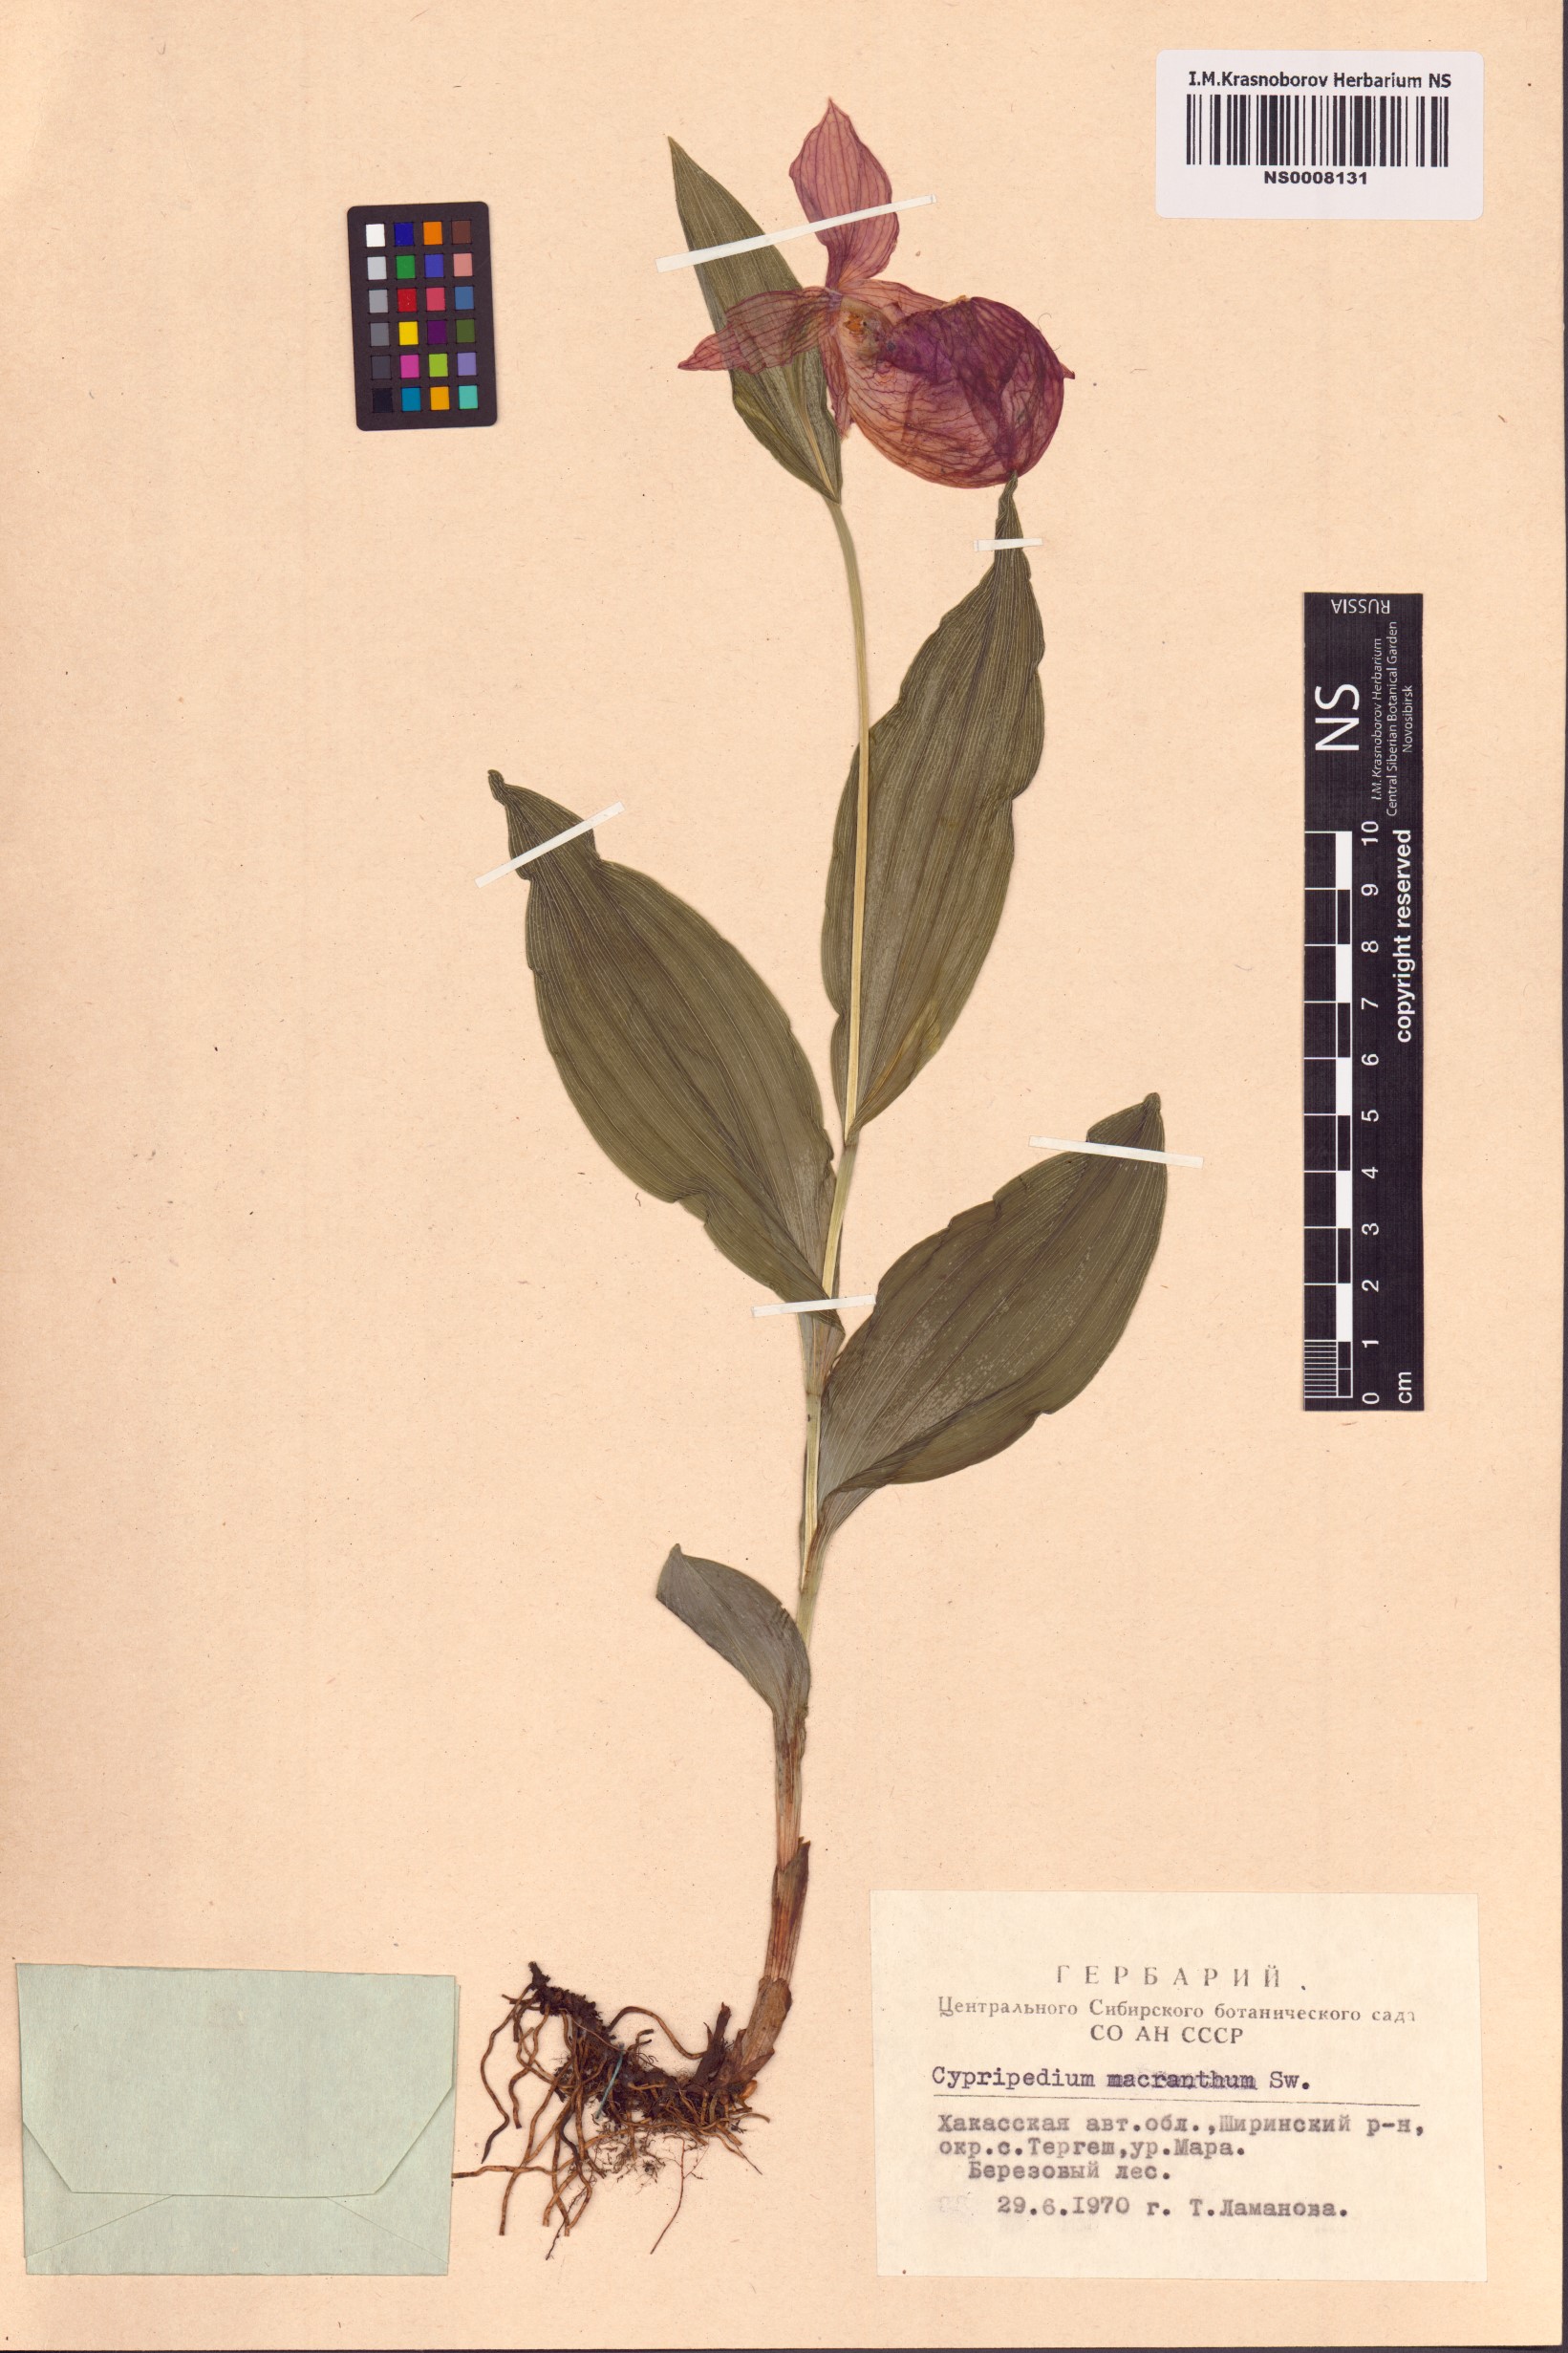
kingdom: Plantae
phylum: Tracheophyta
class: Liliopsida
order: Asparagales
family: Orchidaceae
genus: Cypripedium
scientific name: Cypripedium macranthos
